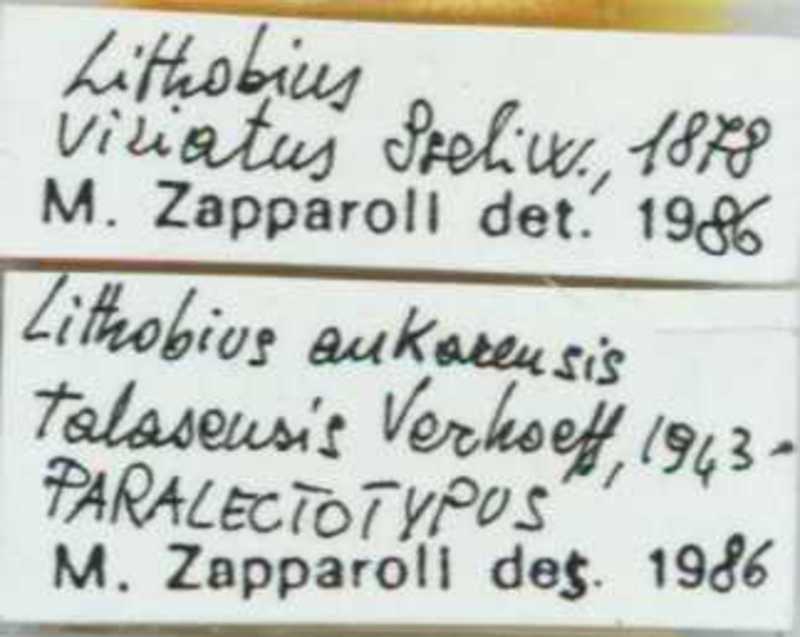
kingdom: Animalia
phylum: Arthropoda
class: Chilopoda
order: Lithobiomorpha
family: Lithobiidae
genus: Lithobius
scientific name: Lithobius viriatus
